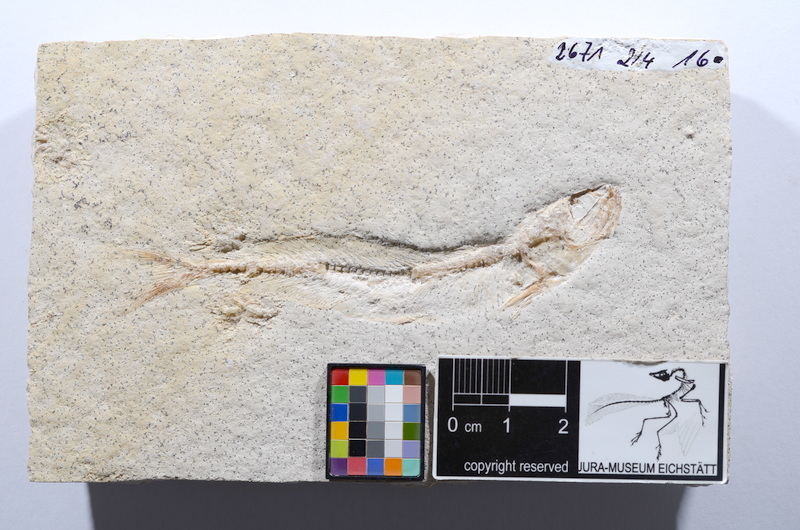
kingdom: Animalia
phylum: Chordata
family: Allothrissopidae
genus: Allothrissops
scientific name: Allothrissops mesogaster
